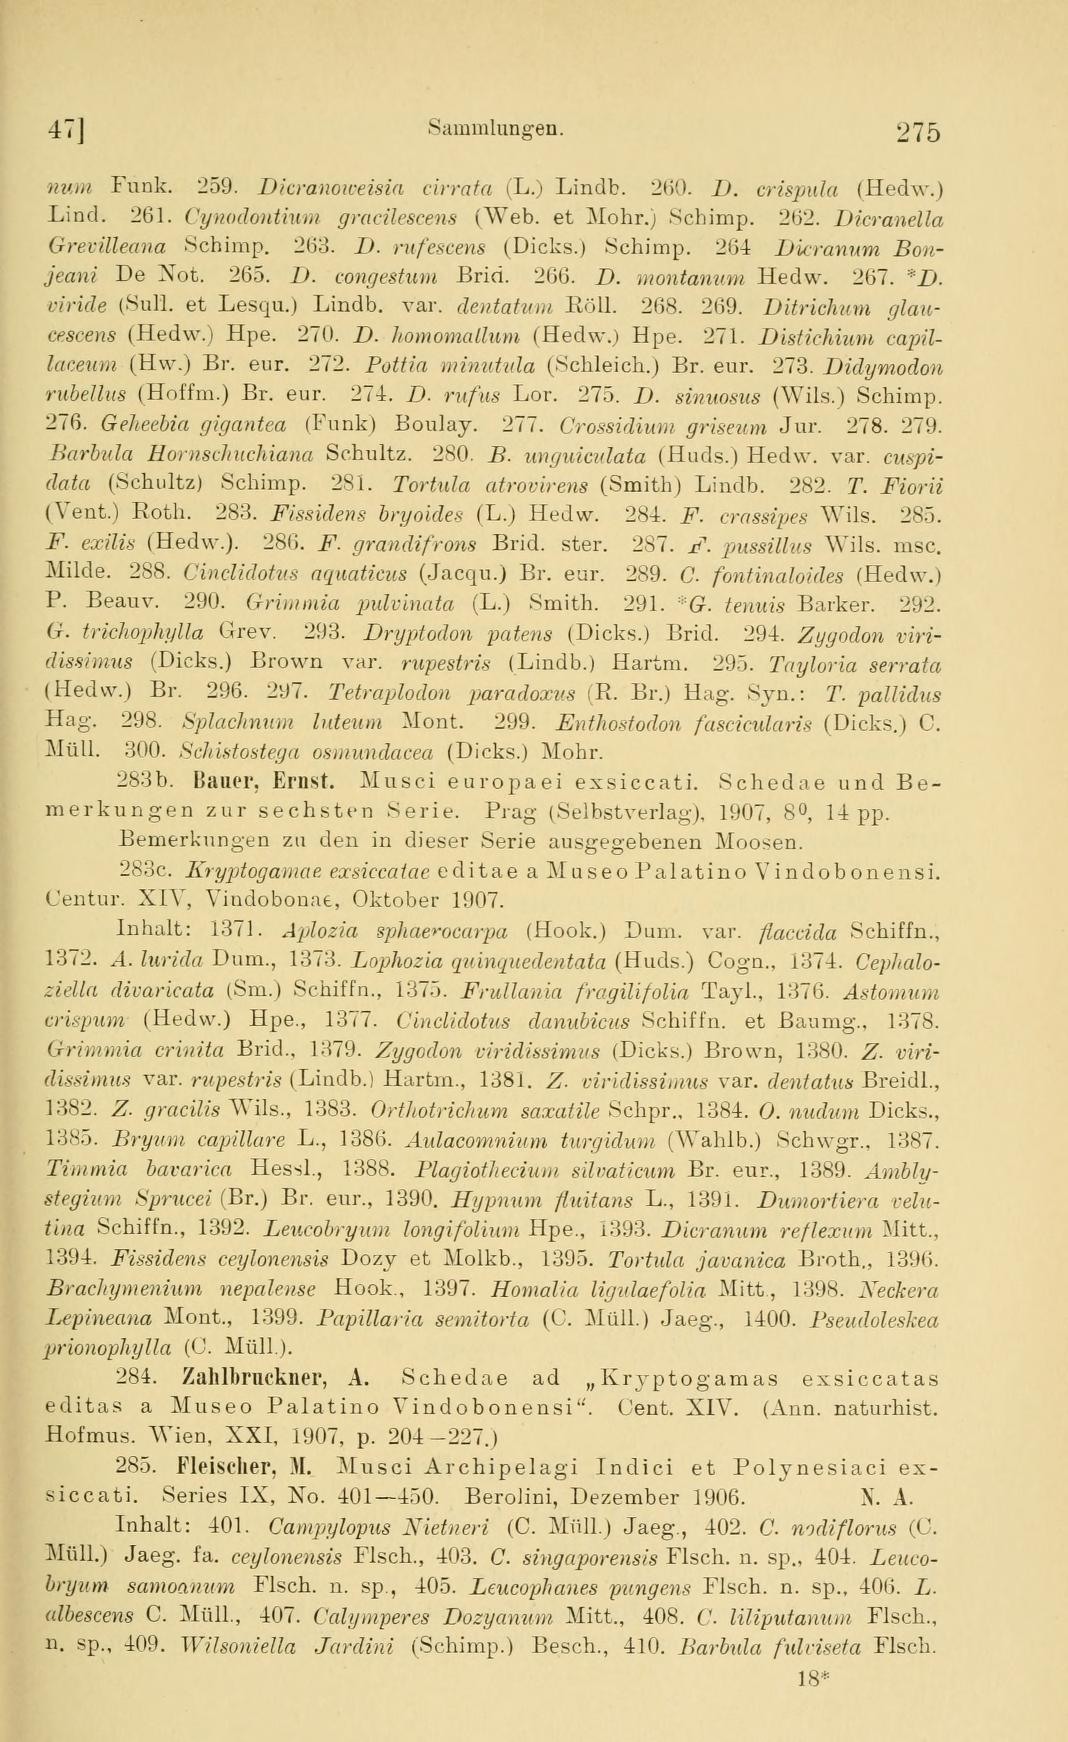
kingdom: Plantae
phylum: Bryophyta
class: Bryopsida
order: Hypnales
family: Lembophyllaceae
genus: Weymouthia
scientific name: Weymouthia cochlearifolia
